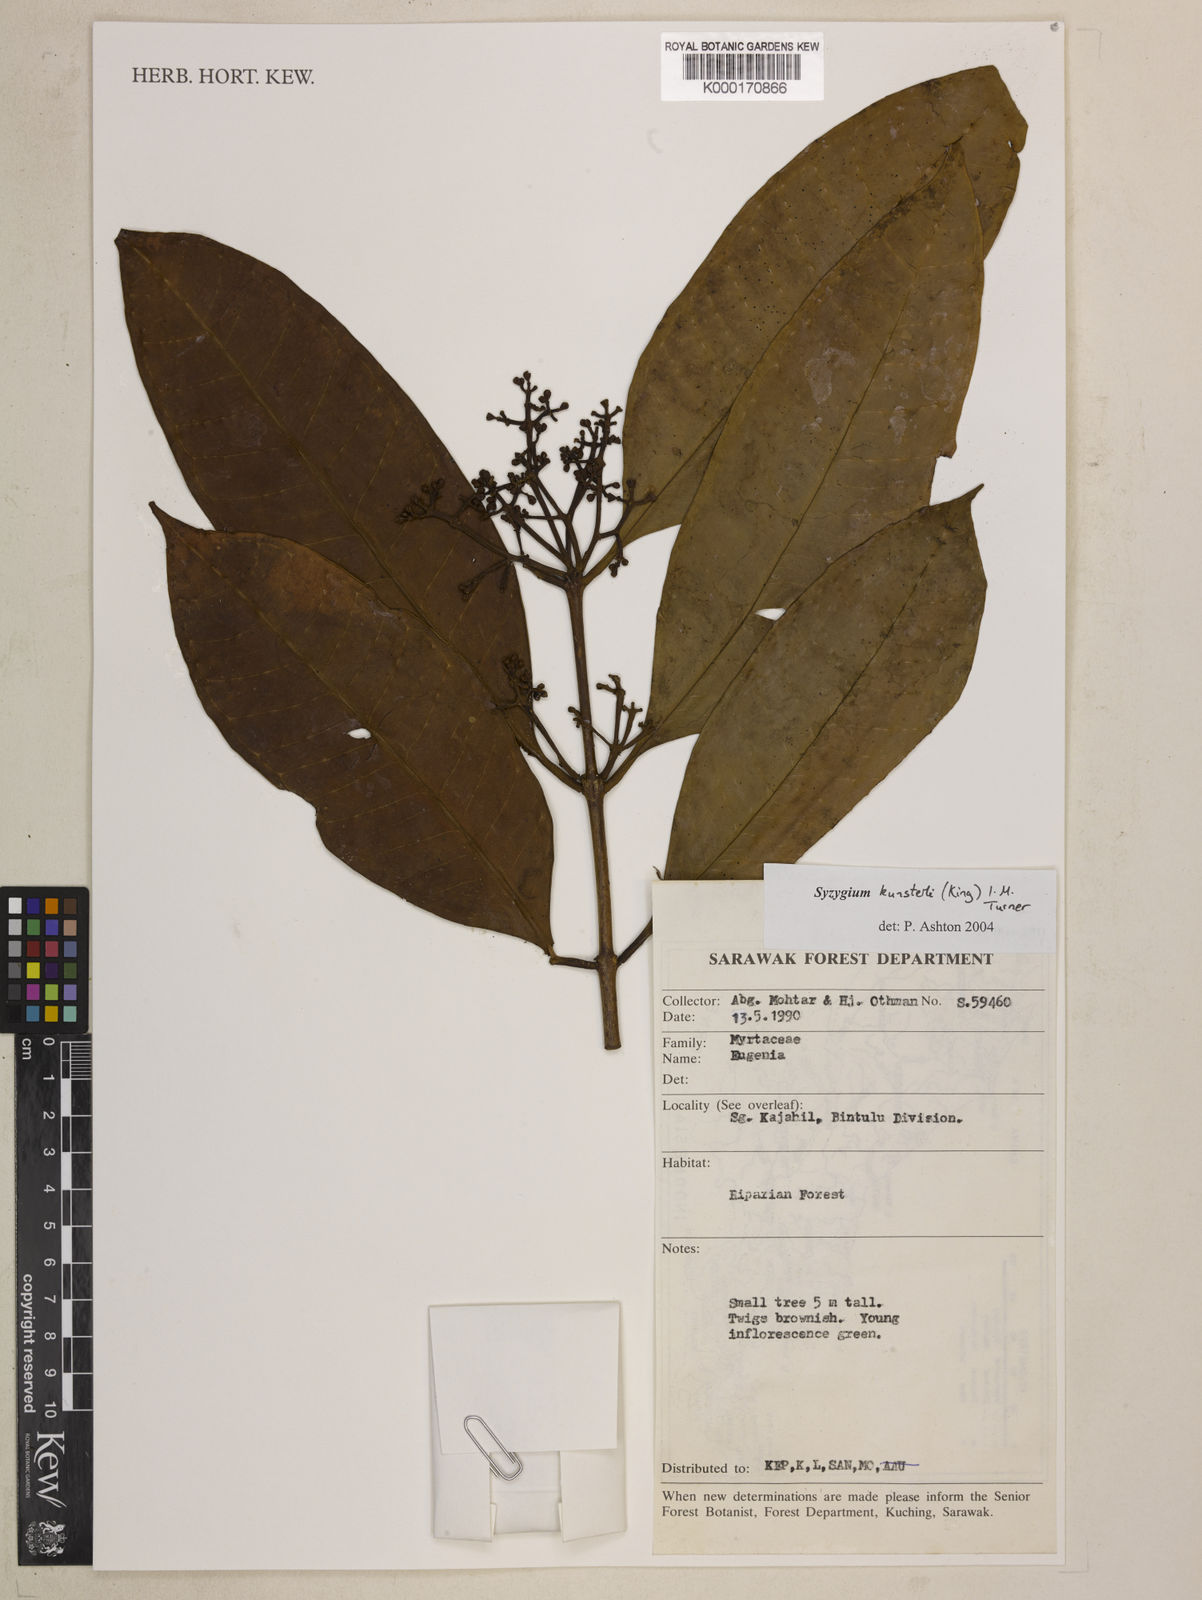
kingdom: Plantae
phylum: Tracheophyta
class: Magnoliopsida
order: Myrtales
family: Myrtaceae
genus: Syzygium
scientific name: Syzygium
